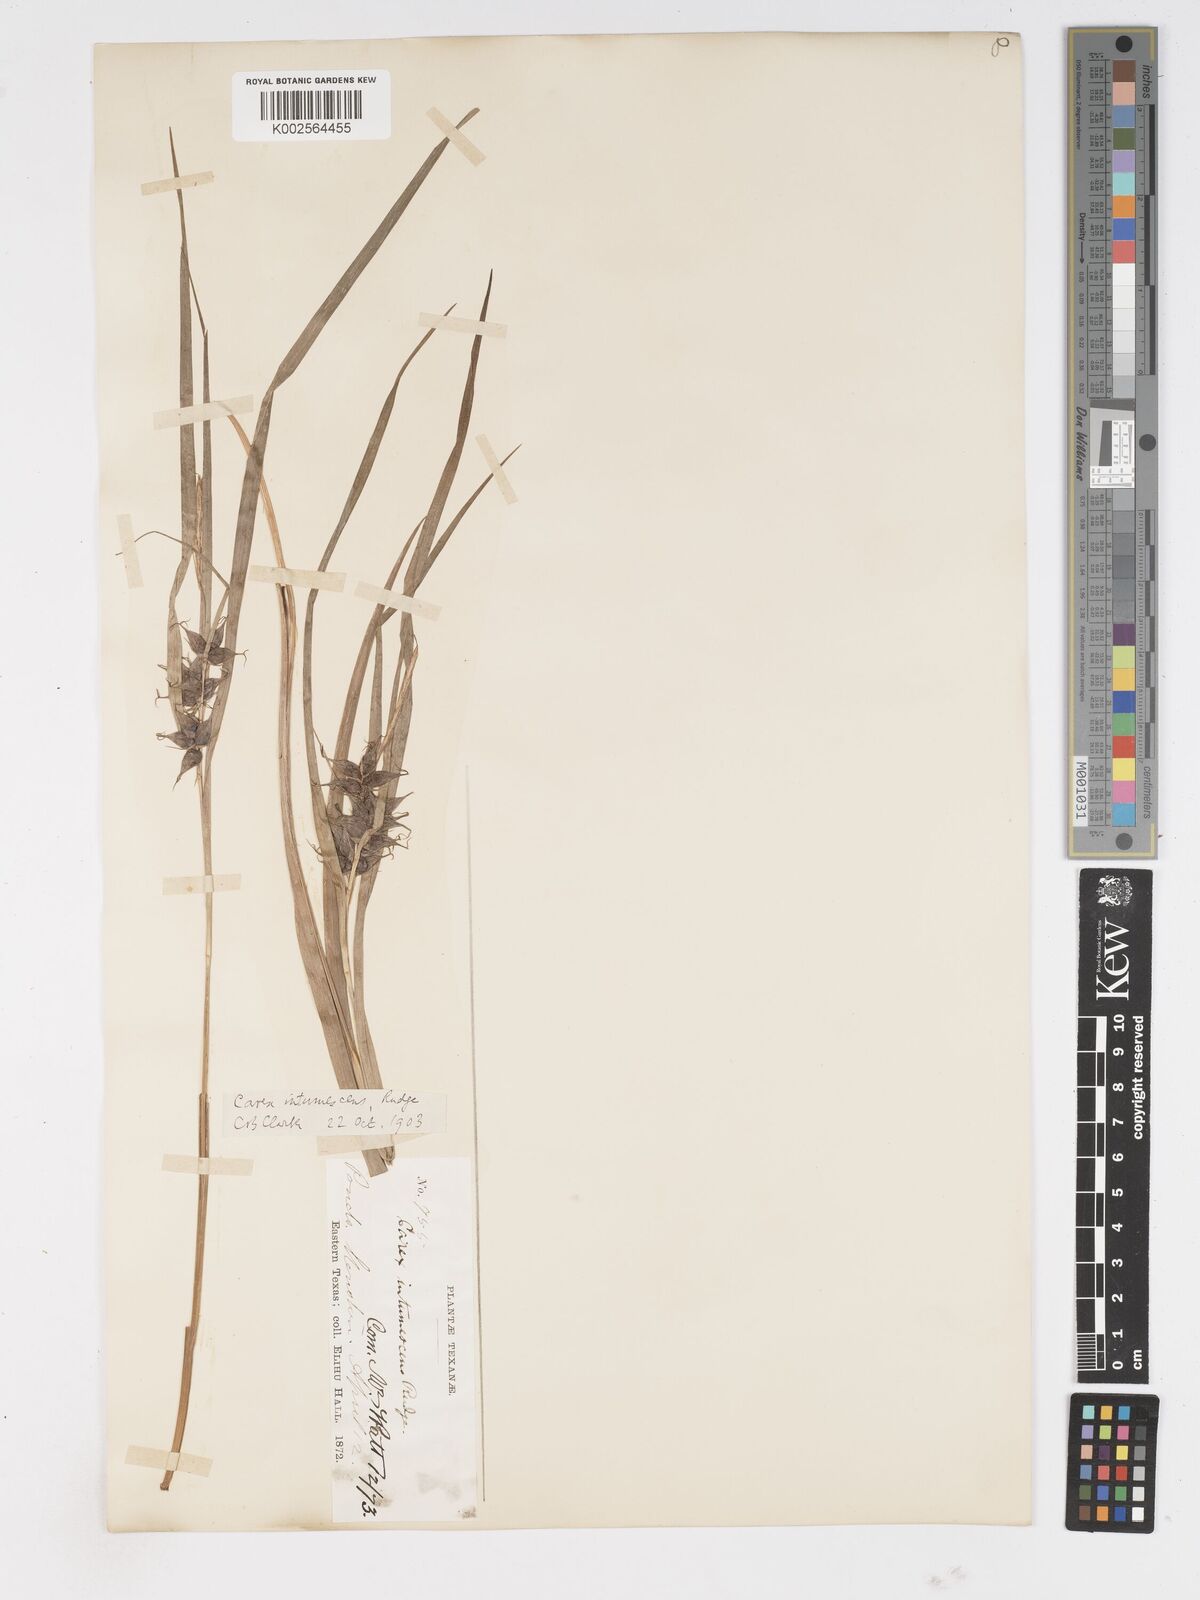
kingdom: Plantae
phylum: Tracheophyta
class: Liliopsida
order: Poales
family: Cyperaceae
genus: Carex
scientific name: Carex intumescens
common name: Greater bladder sedge
